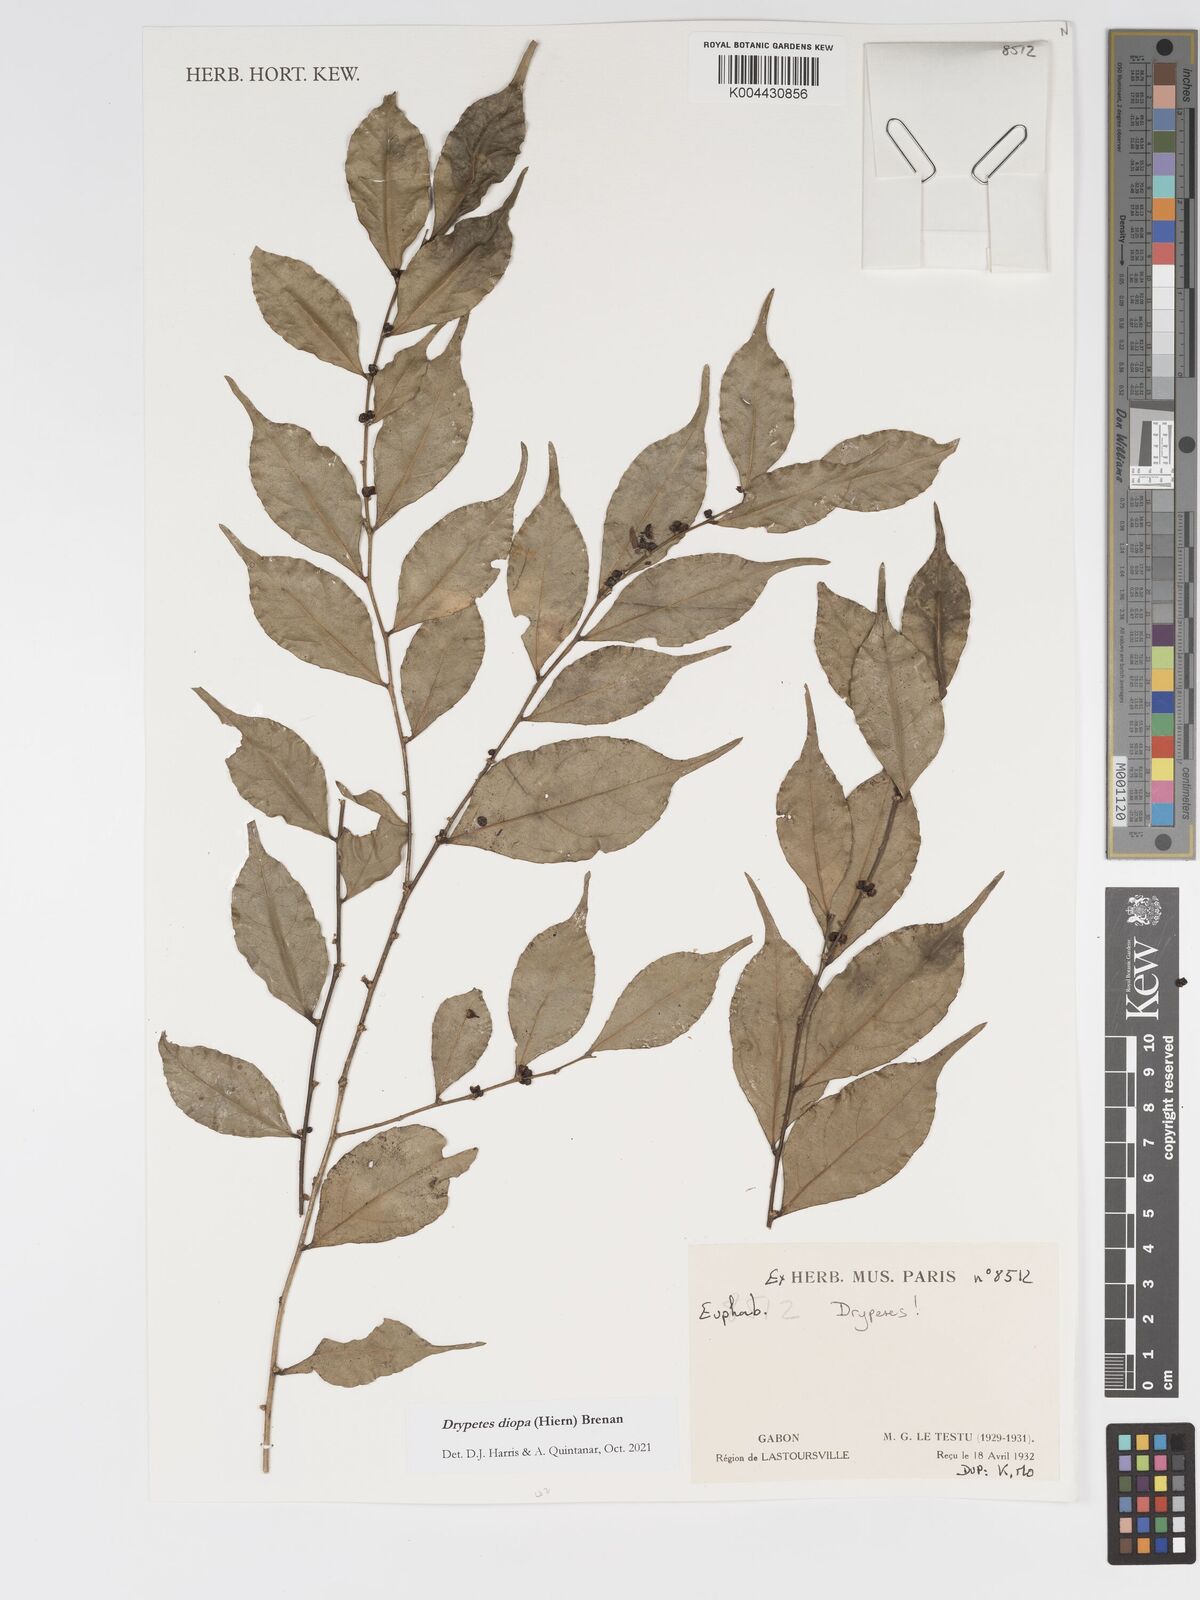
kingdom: Plantae
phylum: Tracheophyta
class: Magnoliopsida
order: Malpighiales
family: Putranjivaceae
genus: Drypetes
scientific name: Drypetes diopa
